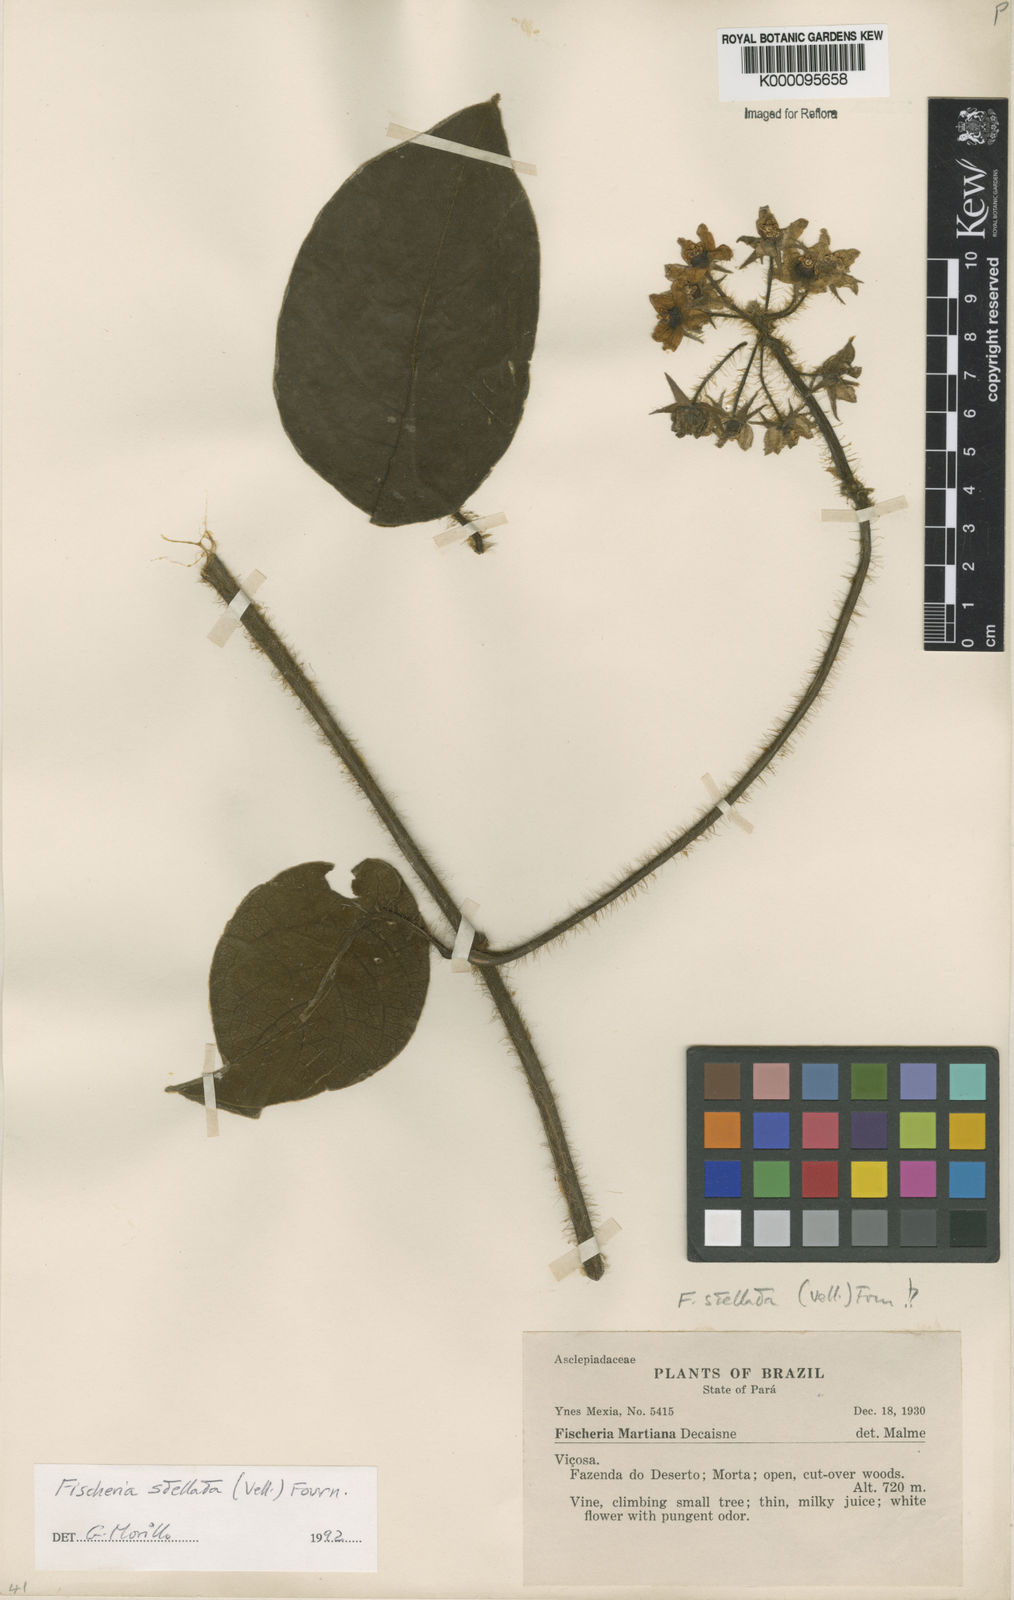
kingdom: Plantae
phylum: Tracheophyta
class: Magnoliopsida
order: Gentianales
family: Apocynaceae
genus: Fischeria
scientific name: Fischeria stellata
